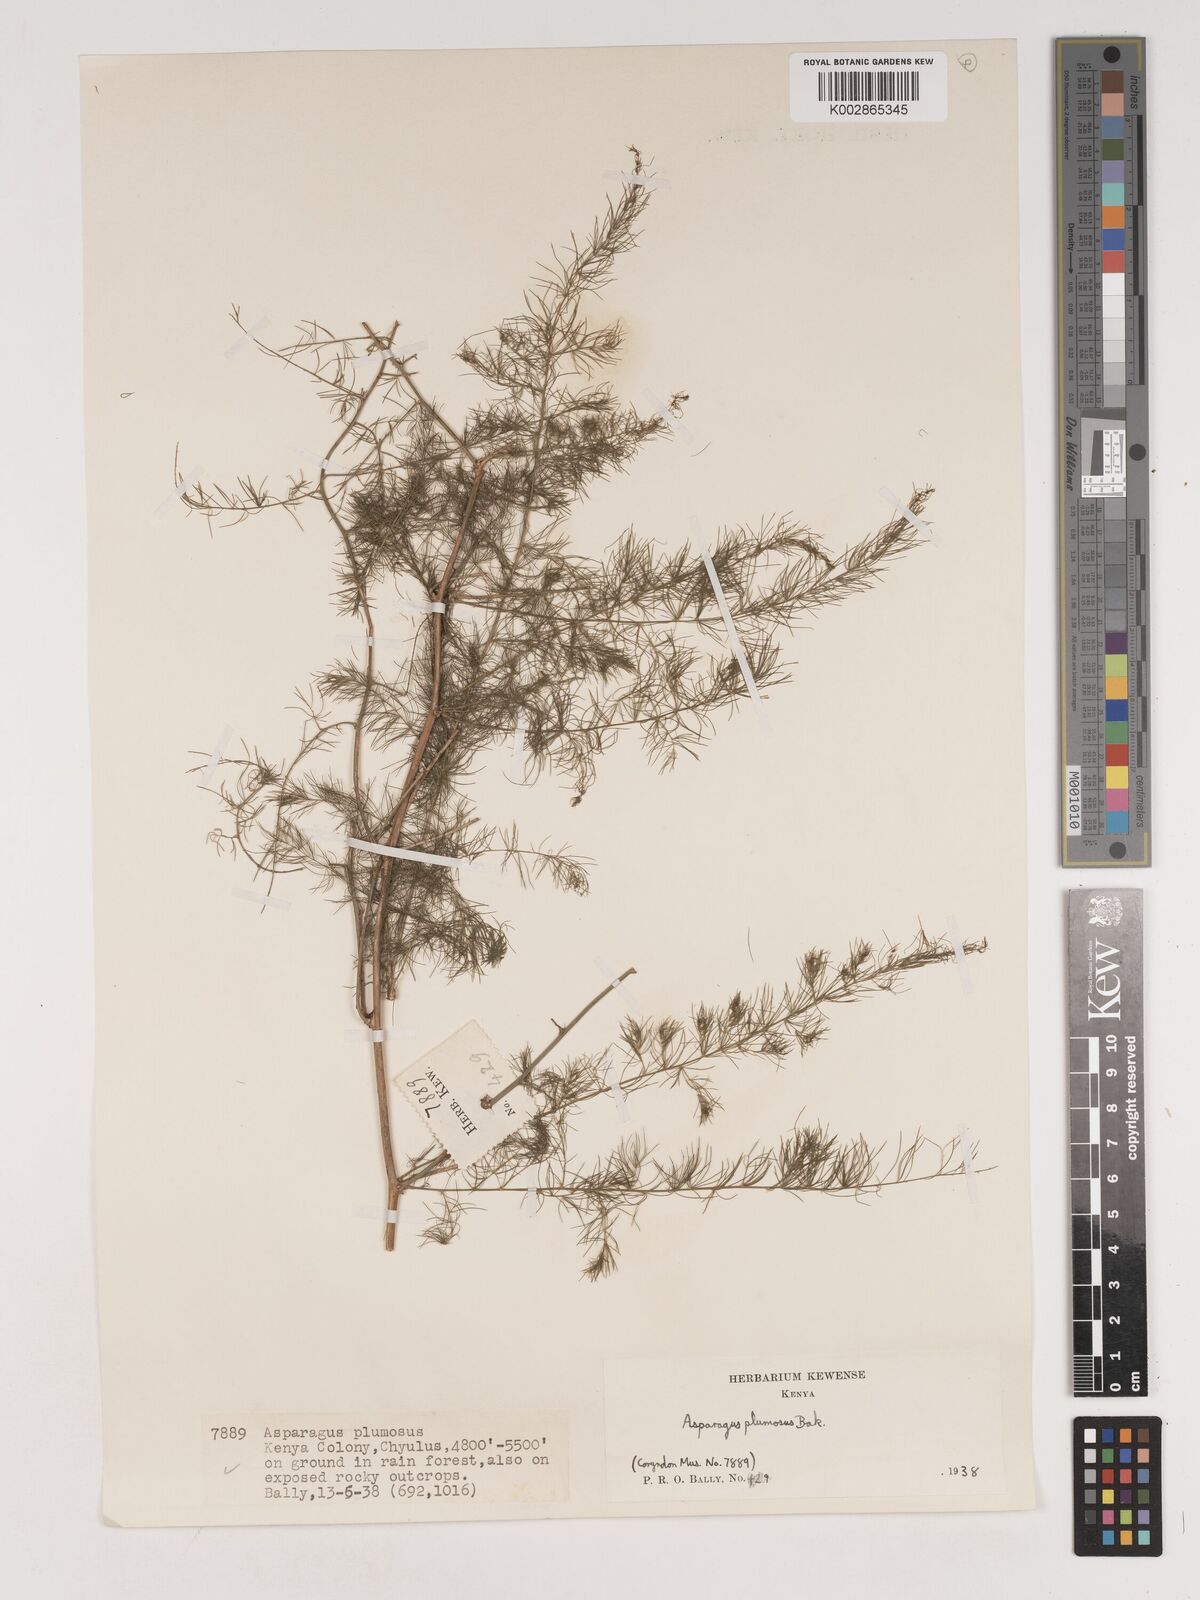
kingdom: Plantae
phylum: Tracheophyta
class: Liliopsida
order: Asparagales
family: Asparagaceae
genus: Asparagus
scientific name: Asparagus
